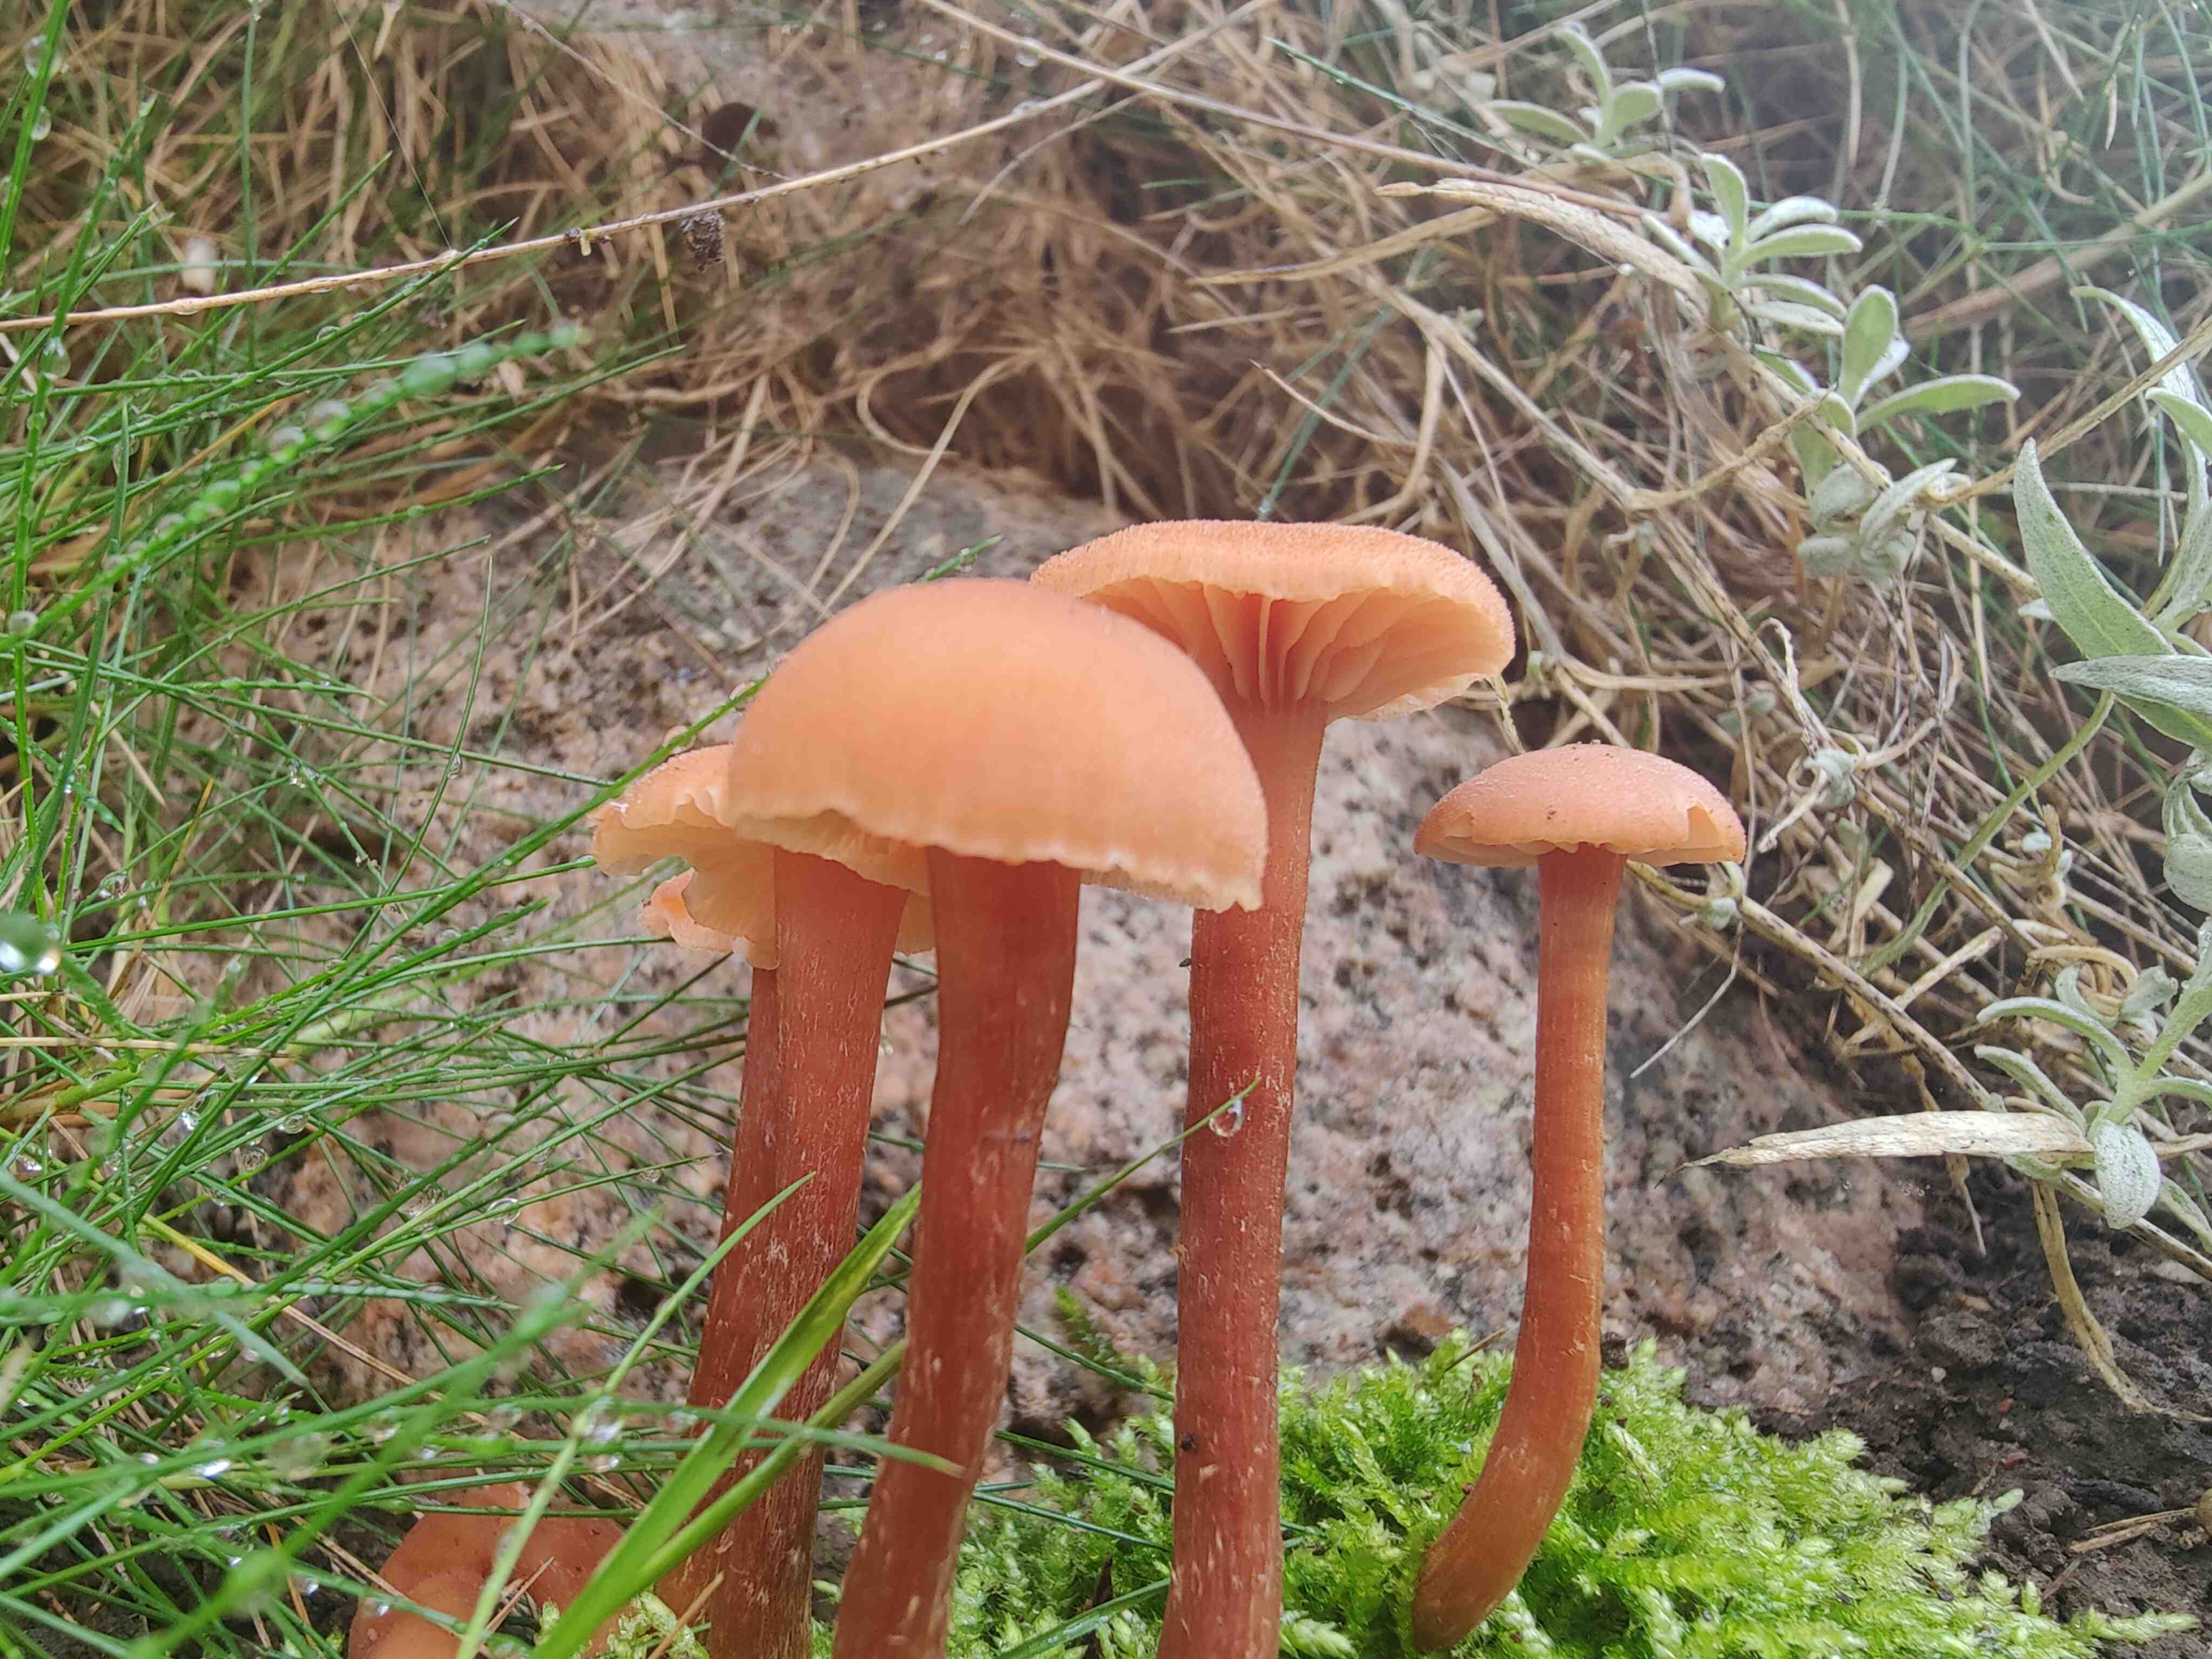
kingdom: Fungi
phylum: Basidiomycota
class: Agaricomycetes
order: Agaricales
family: Hydnangiaceae
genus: Laccaria
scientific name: Laccaria proxima
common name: stor ametysthat
